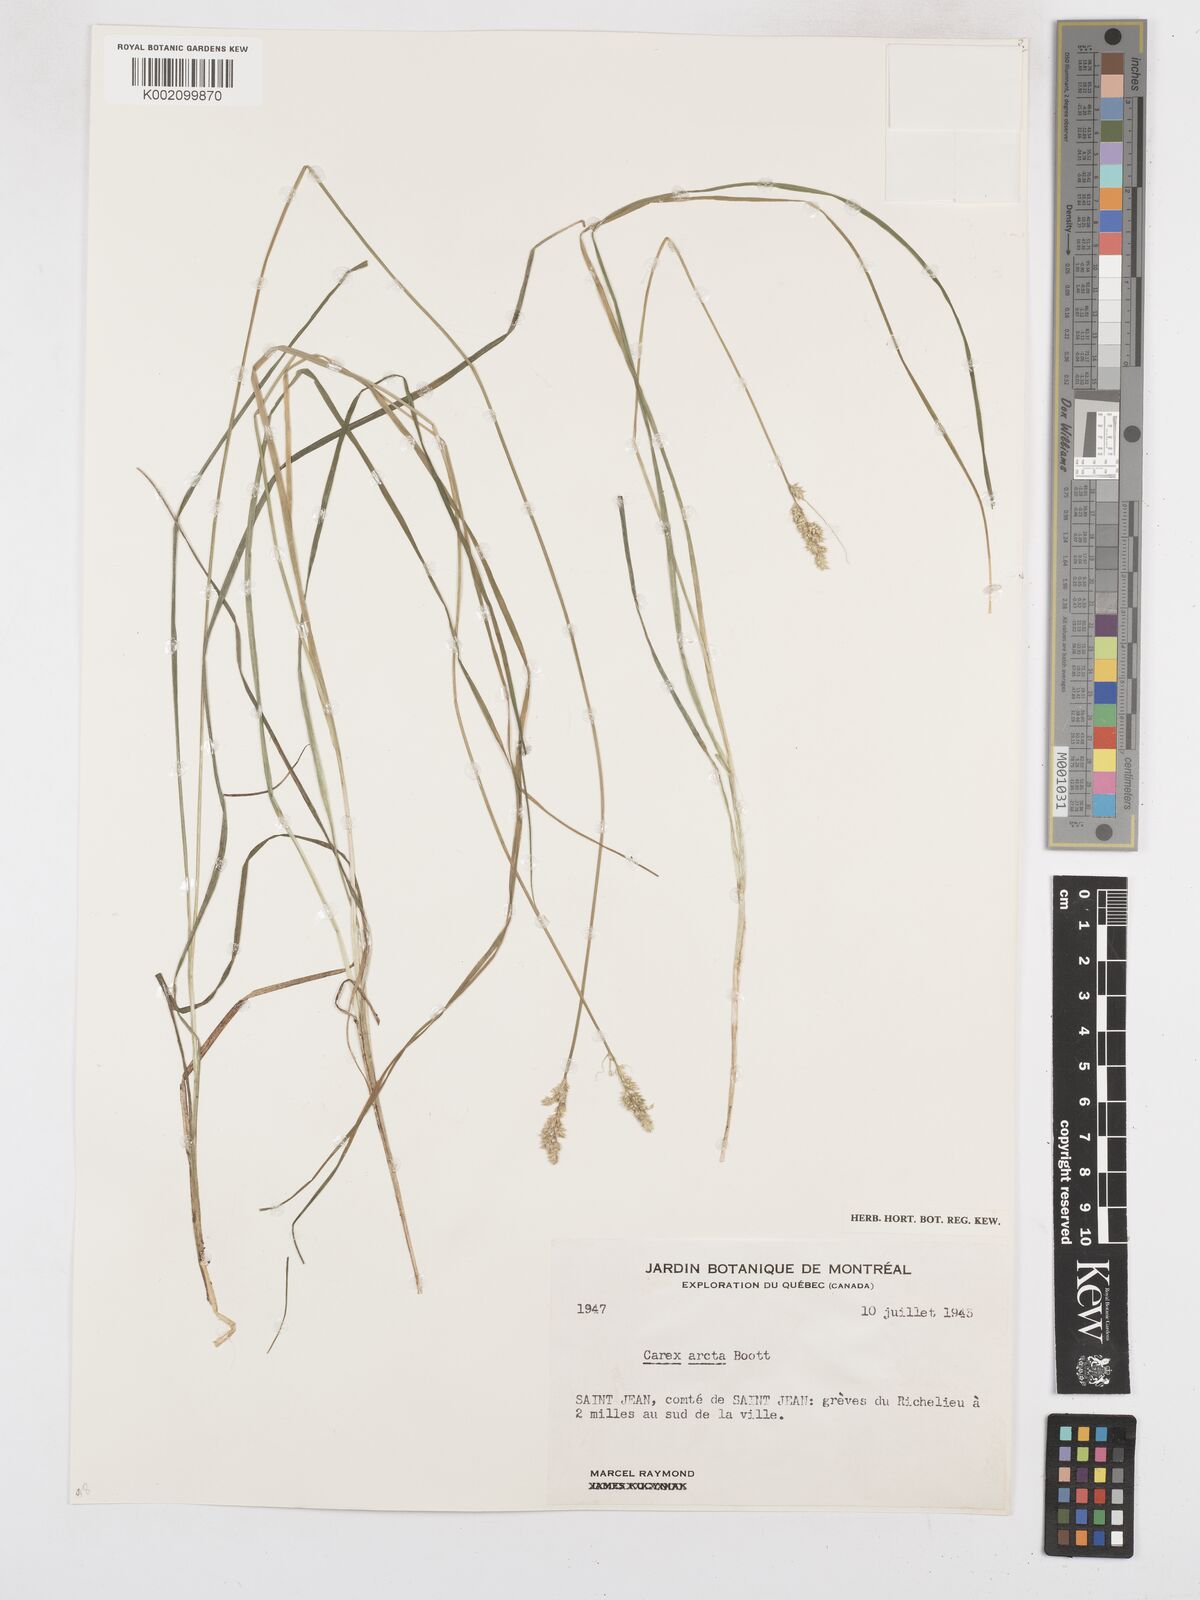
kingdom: Plantae
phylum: Tracheophyta
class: Liliopsida
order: Poales
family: Cyperaceae
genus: Carex
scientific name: Carex arcta
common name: Bear sedge
